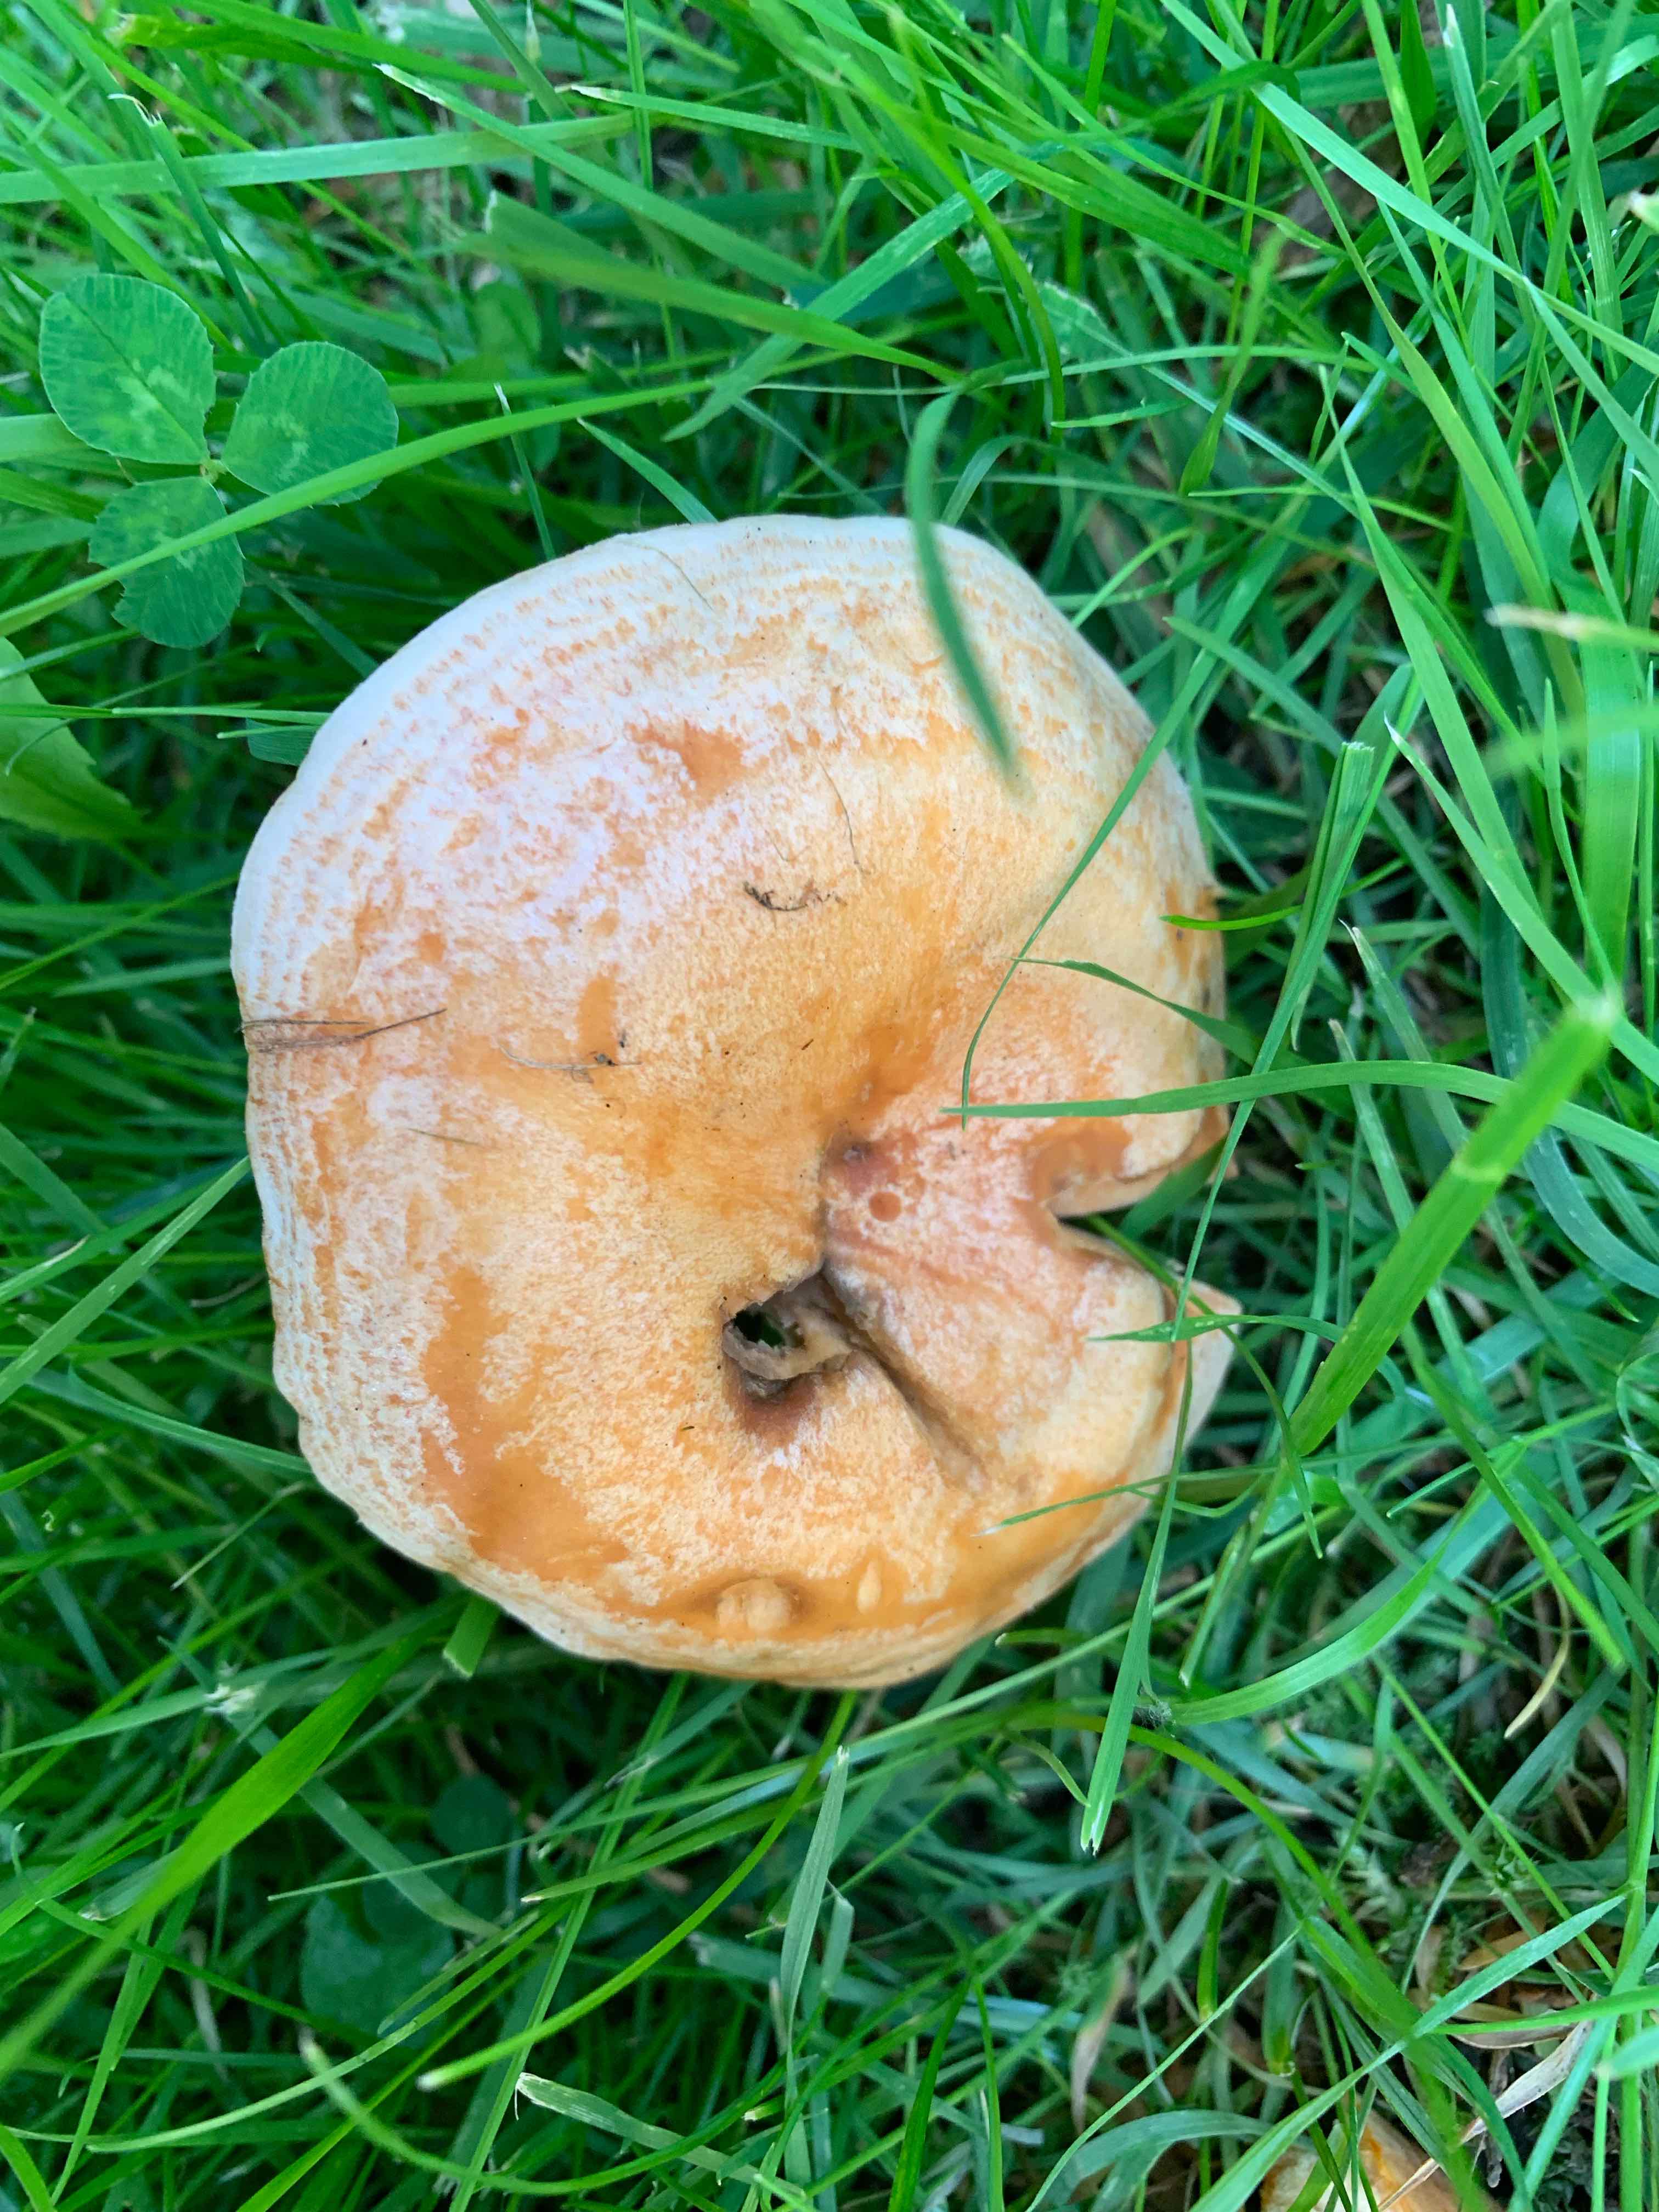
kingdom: Fungi
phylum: Basidiomycota
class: Agaricomycetes
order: Russulales
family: Russulaceae
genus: Lactarius
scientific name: Lactarius deterrimus
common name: gran-mælkehat
